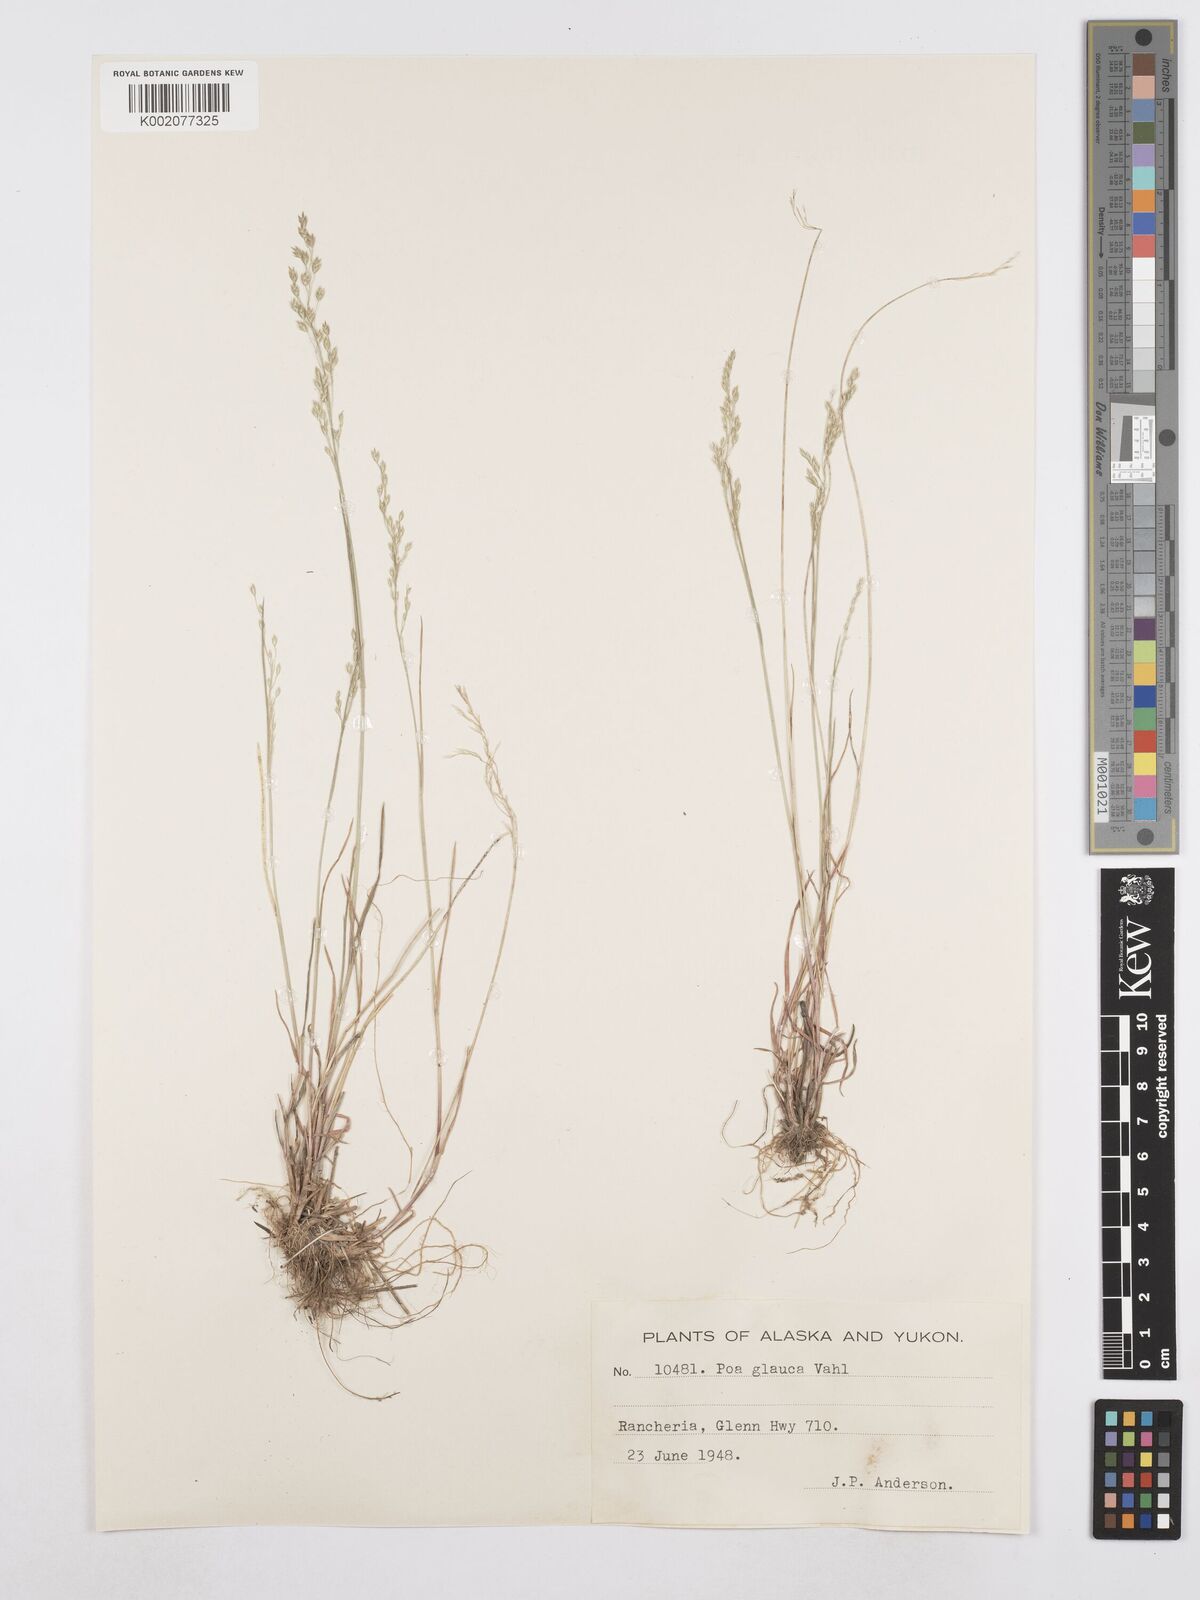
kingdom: Plantae
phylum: Tracheophyta
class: Liliopsida
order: Poales
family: Poaceae
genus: Poa
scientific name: Poa glauca
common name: Glaucous bluegrass
